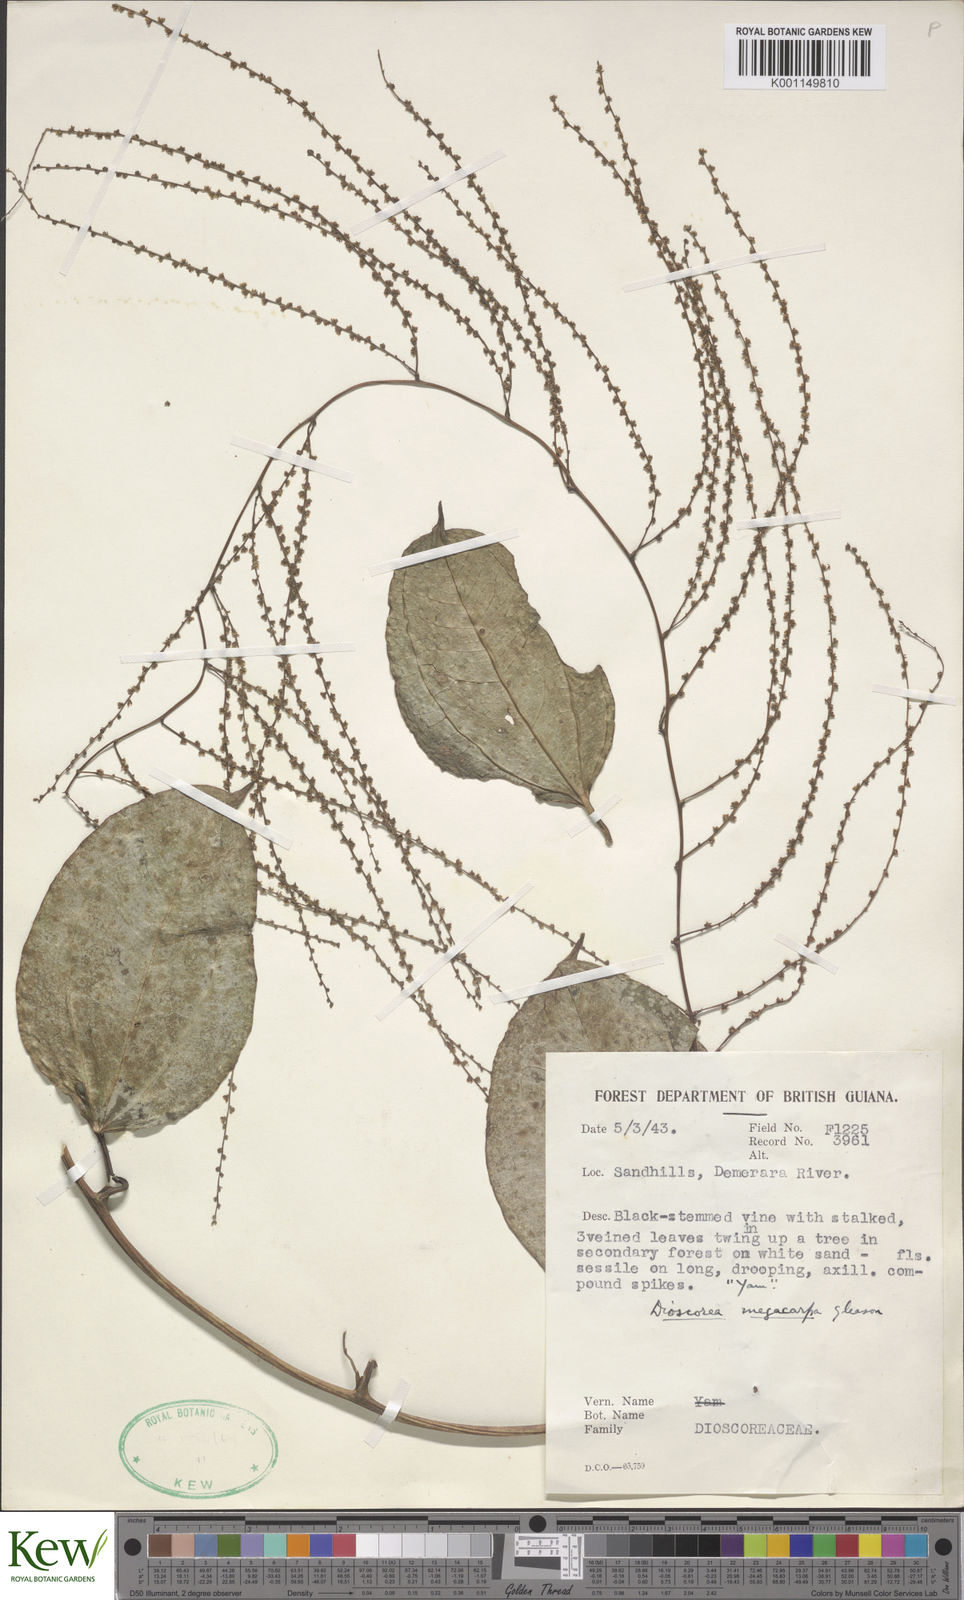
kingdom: Plantae
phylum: Tracheophyta
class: Liliopsida
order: Dioscoreales
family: Dioscoreaceae
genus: Dioscorea
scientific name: Dioscorea
